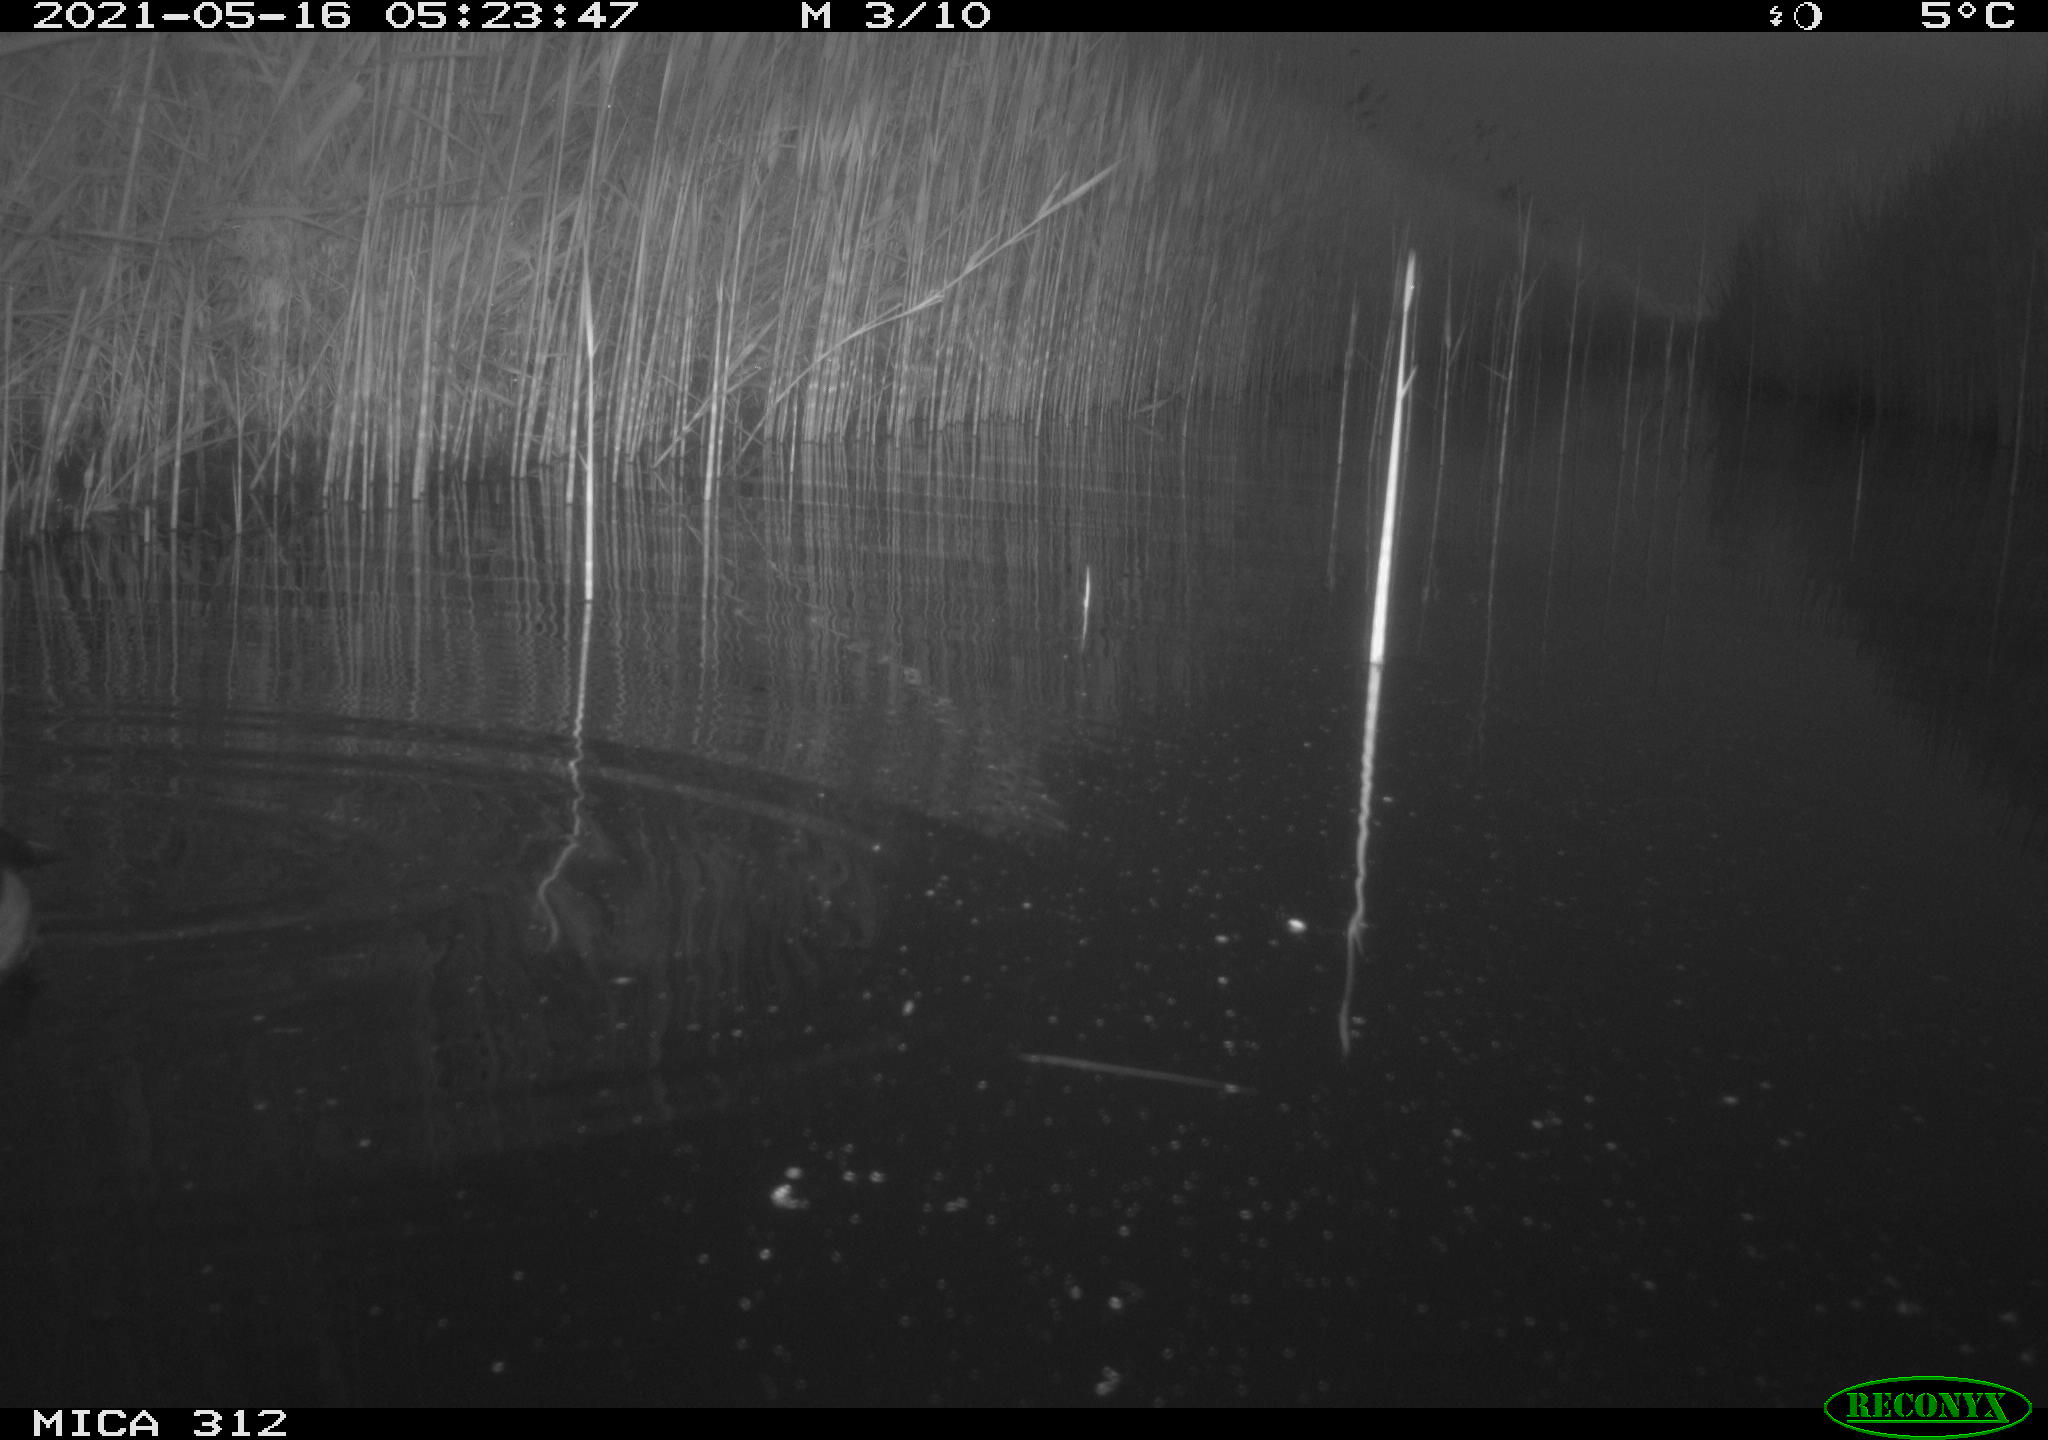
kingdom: Animalia
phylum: Chordata
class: Aves
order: Gruiformes
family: Rallidae
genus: Fulica
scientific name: Fulica atra
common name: Eurasian coot
